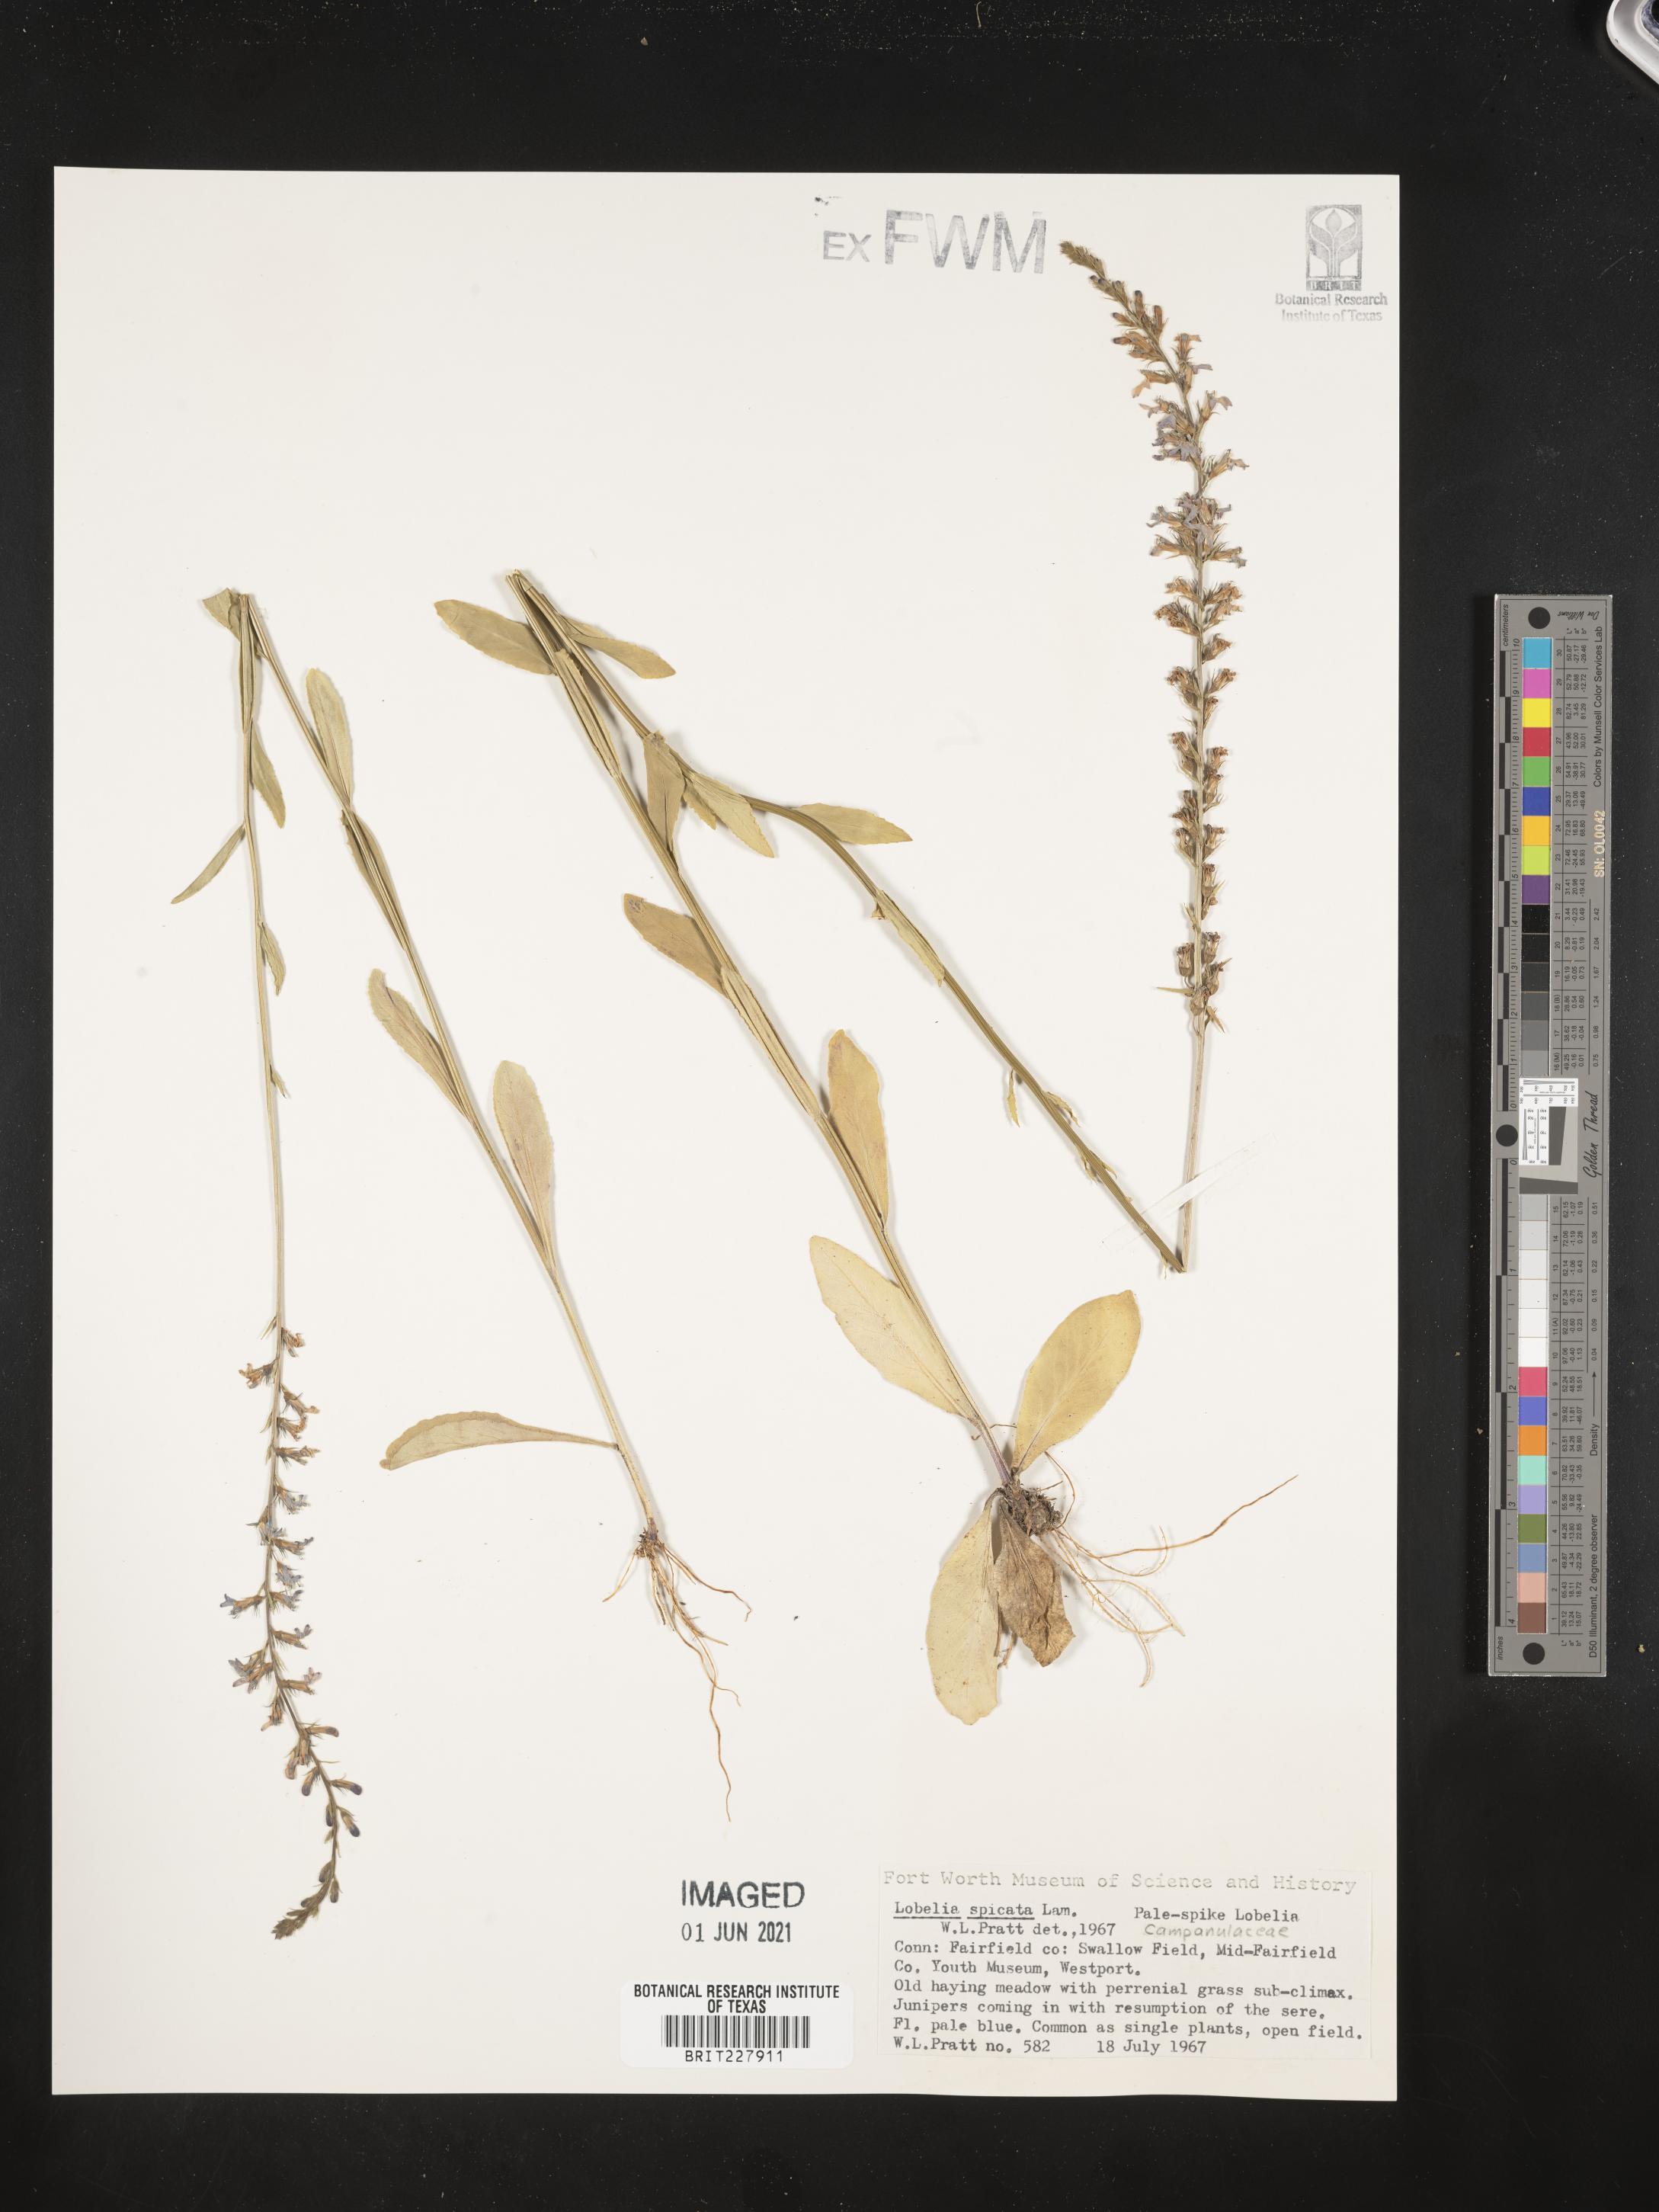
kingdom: Plantae
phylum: Tracheophyta
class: Magnoliopsida
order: Asterales
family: Campanulaceae
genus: Lobelia
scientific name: Lobelia spicata
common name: Pale-spike lobelia
